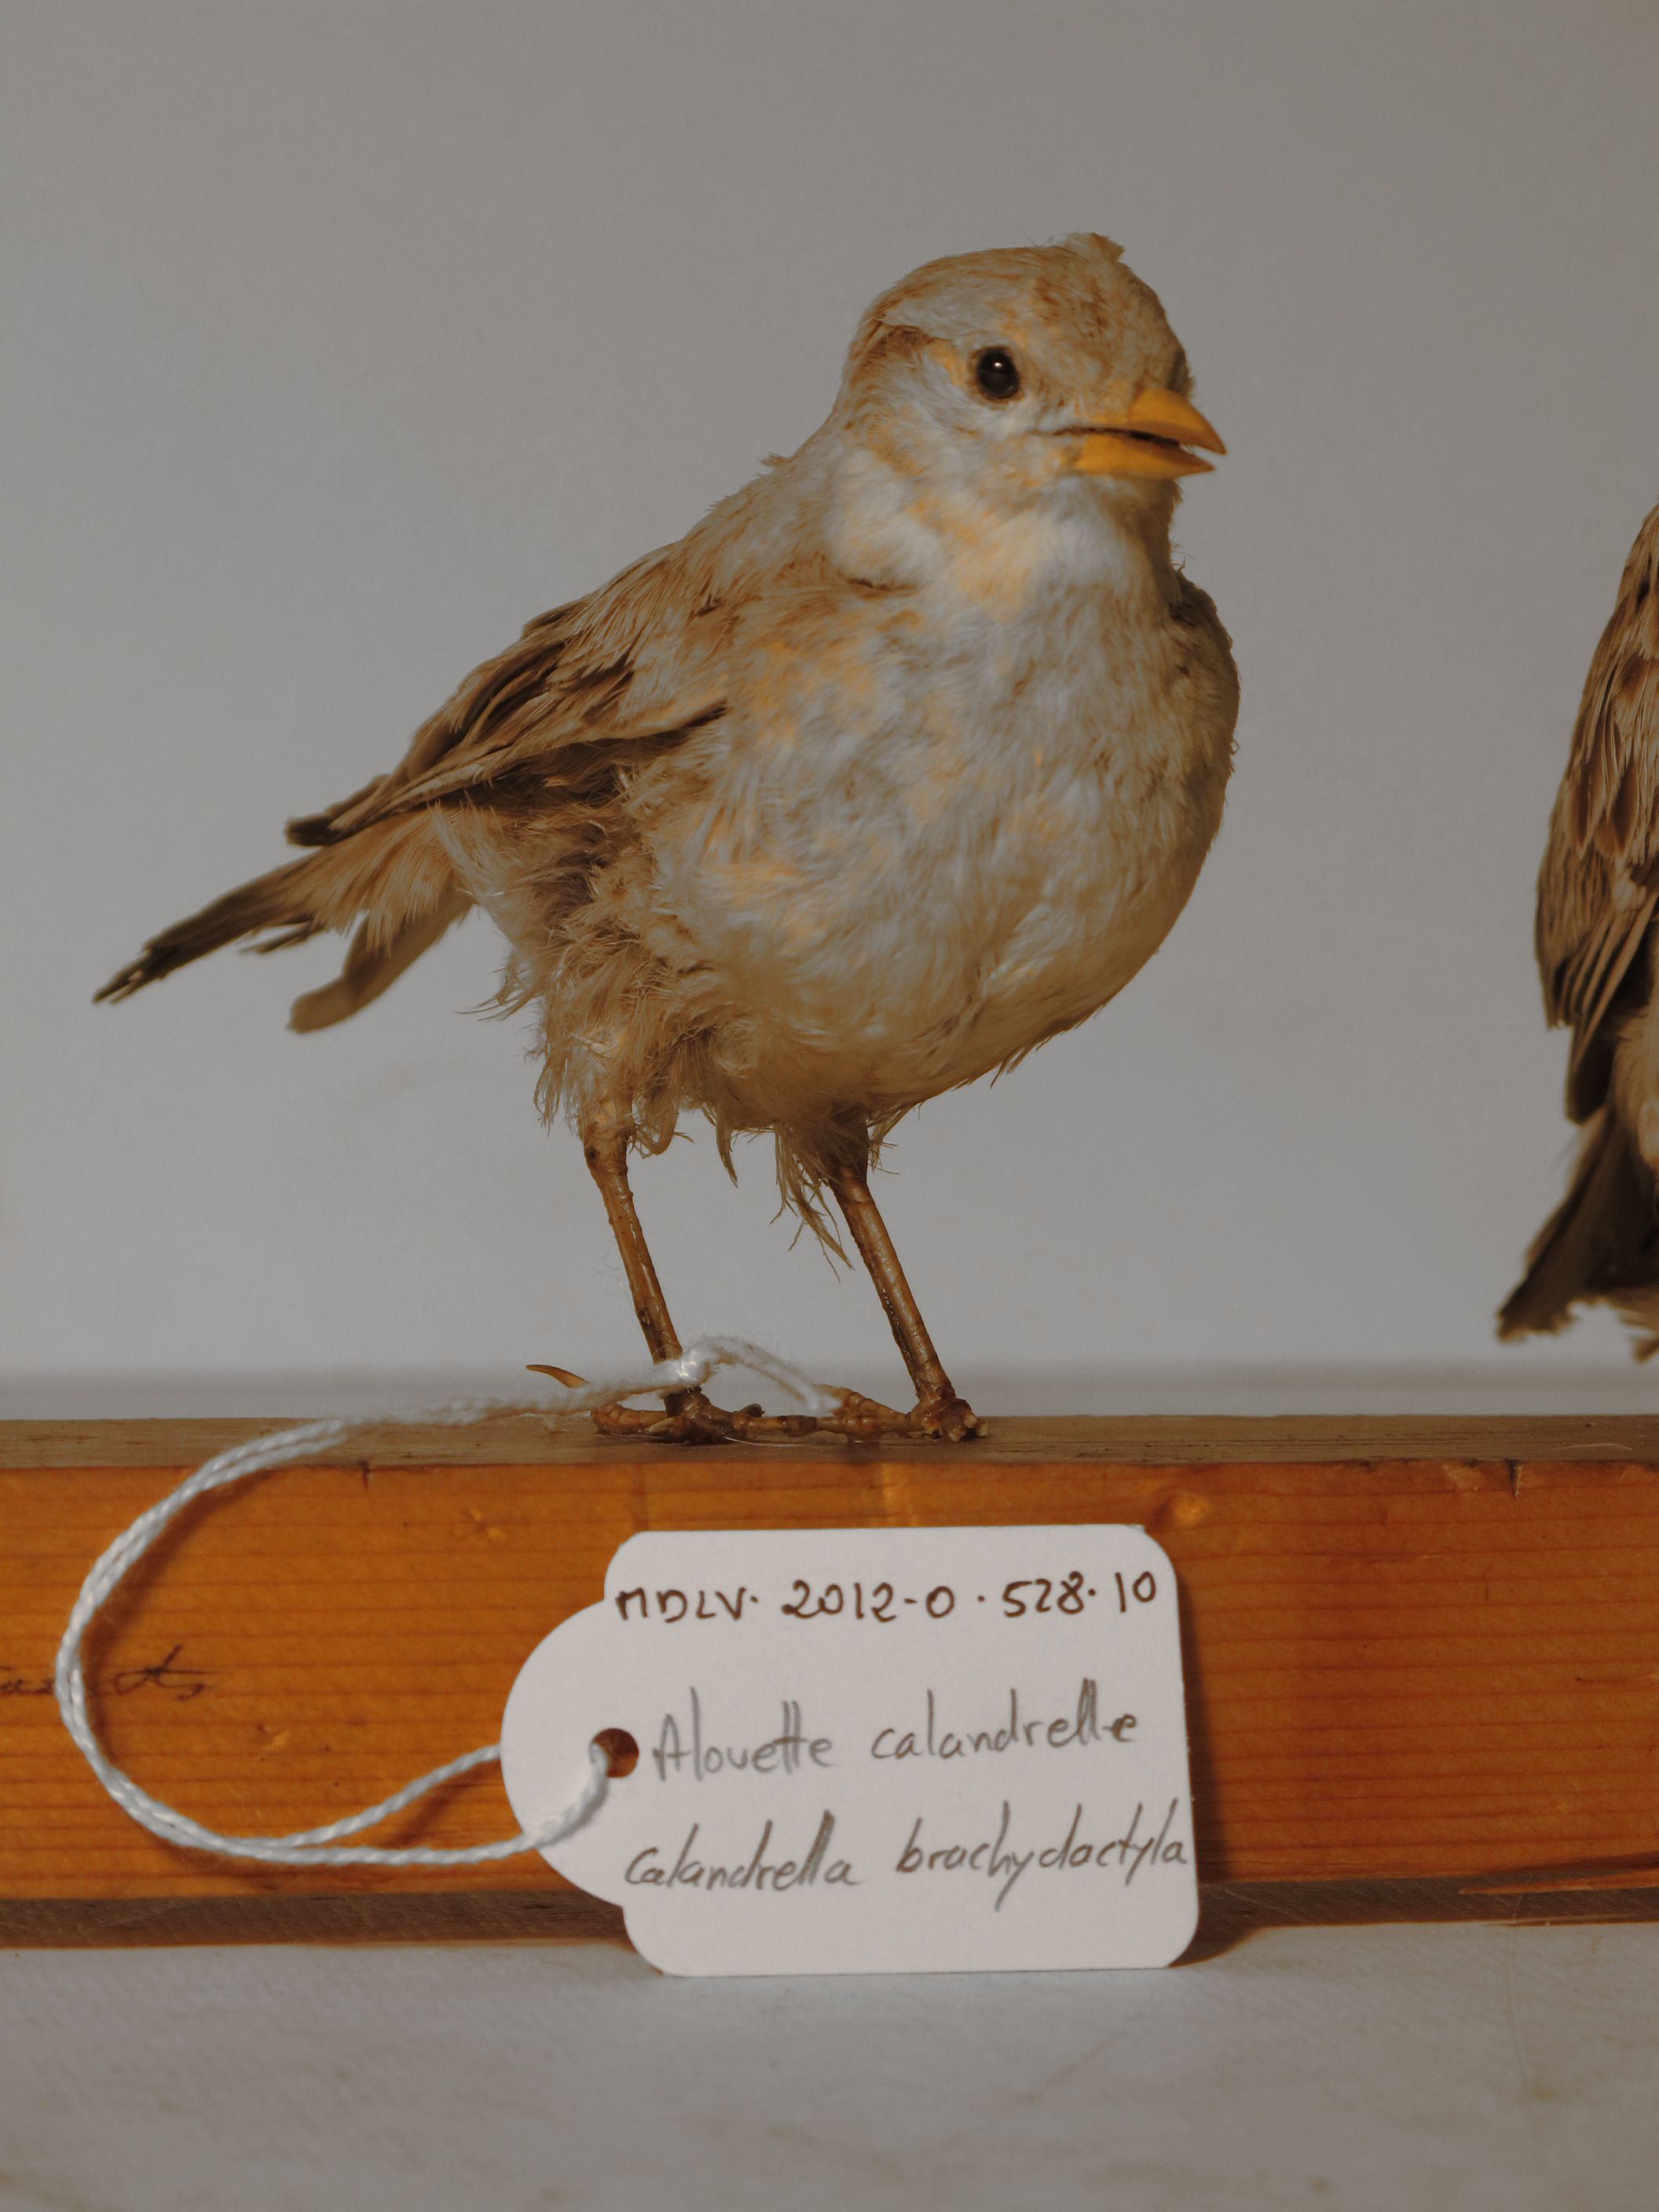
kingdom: Animalia
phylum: Chordata
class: Aves
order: Passeriformes
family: Alaudidae
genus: Calandrella
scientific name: Calandrella brachydactyla
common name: Greater Short-toed Lark
